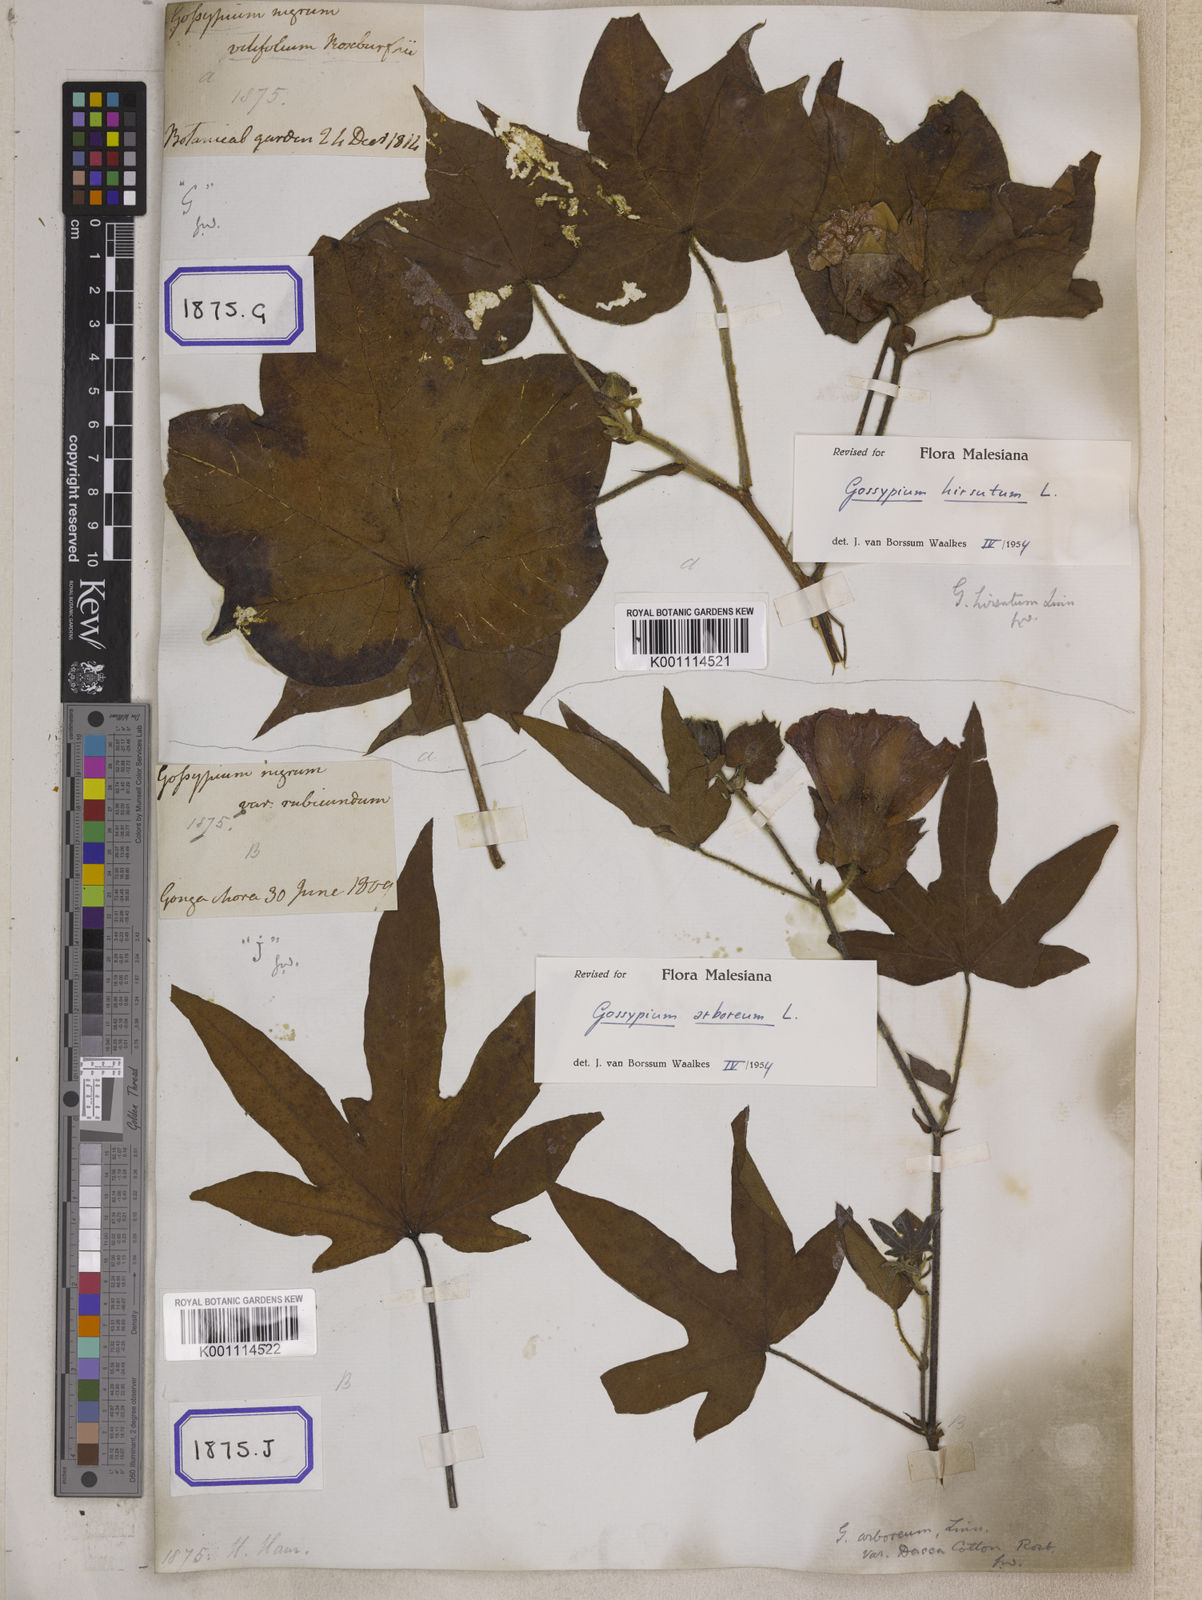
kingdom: Plantae
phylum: Tracheophyta
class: Magnoliopsida
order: Malvales
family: Malvaceae
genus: Gossypium
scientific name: Gossypium barbadense
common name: Creole cotton
